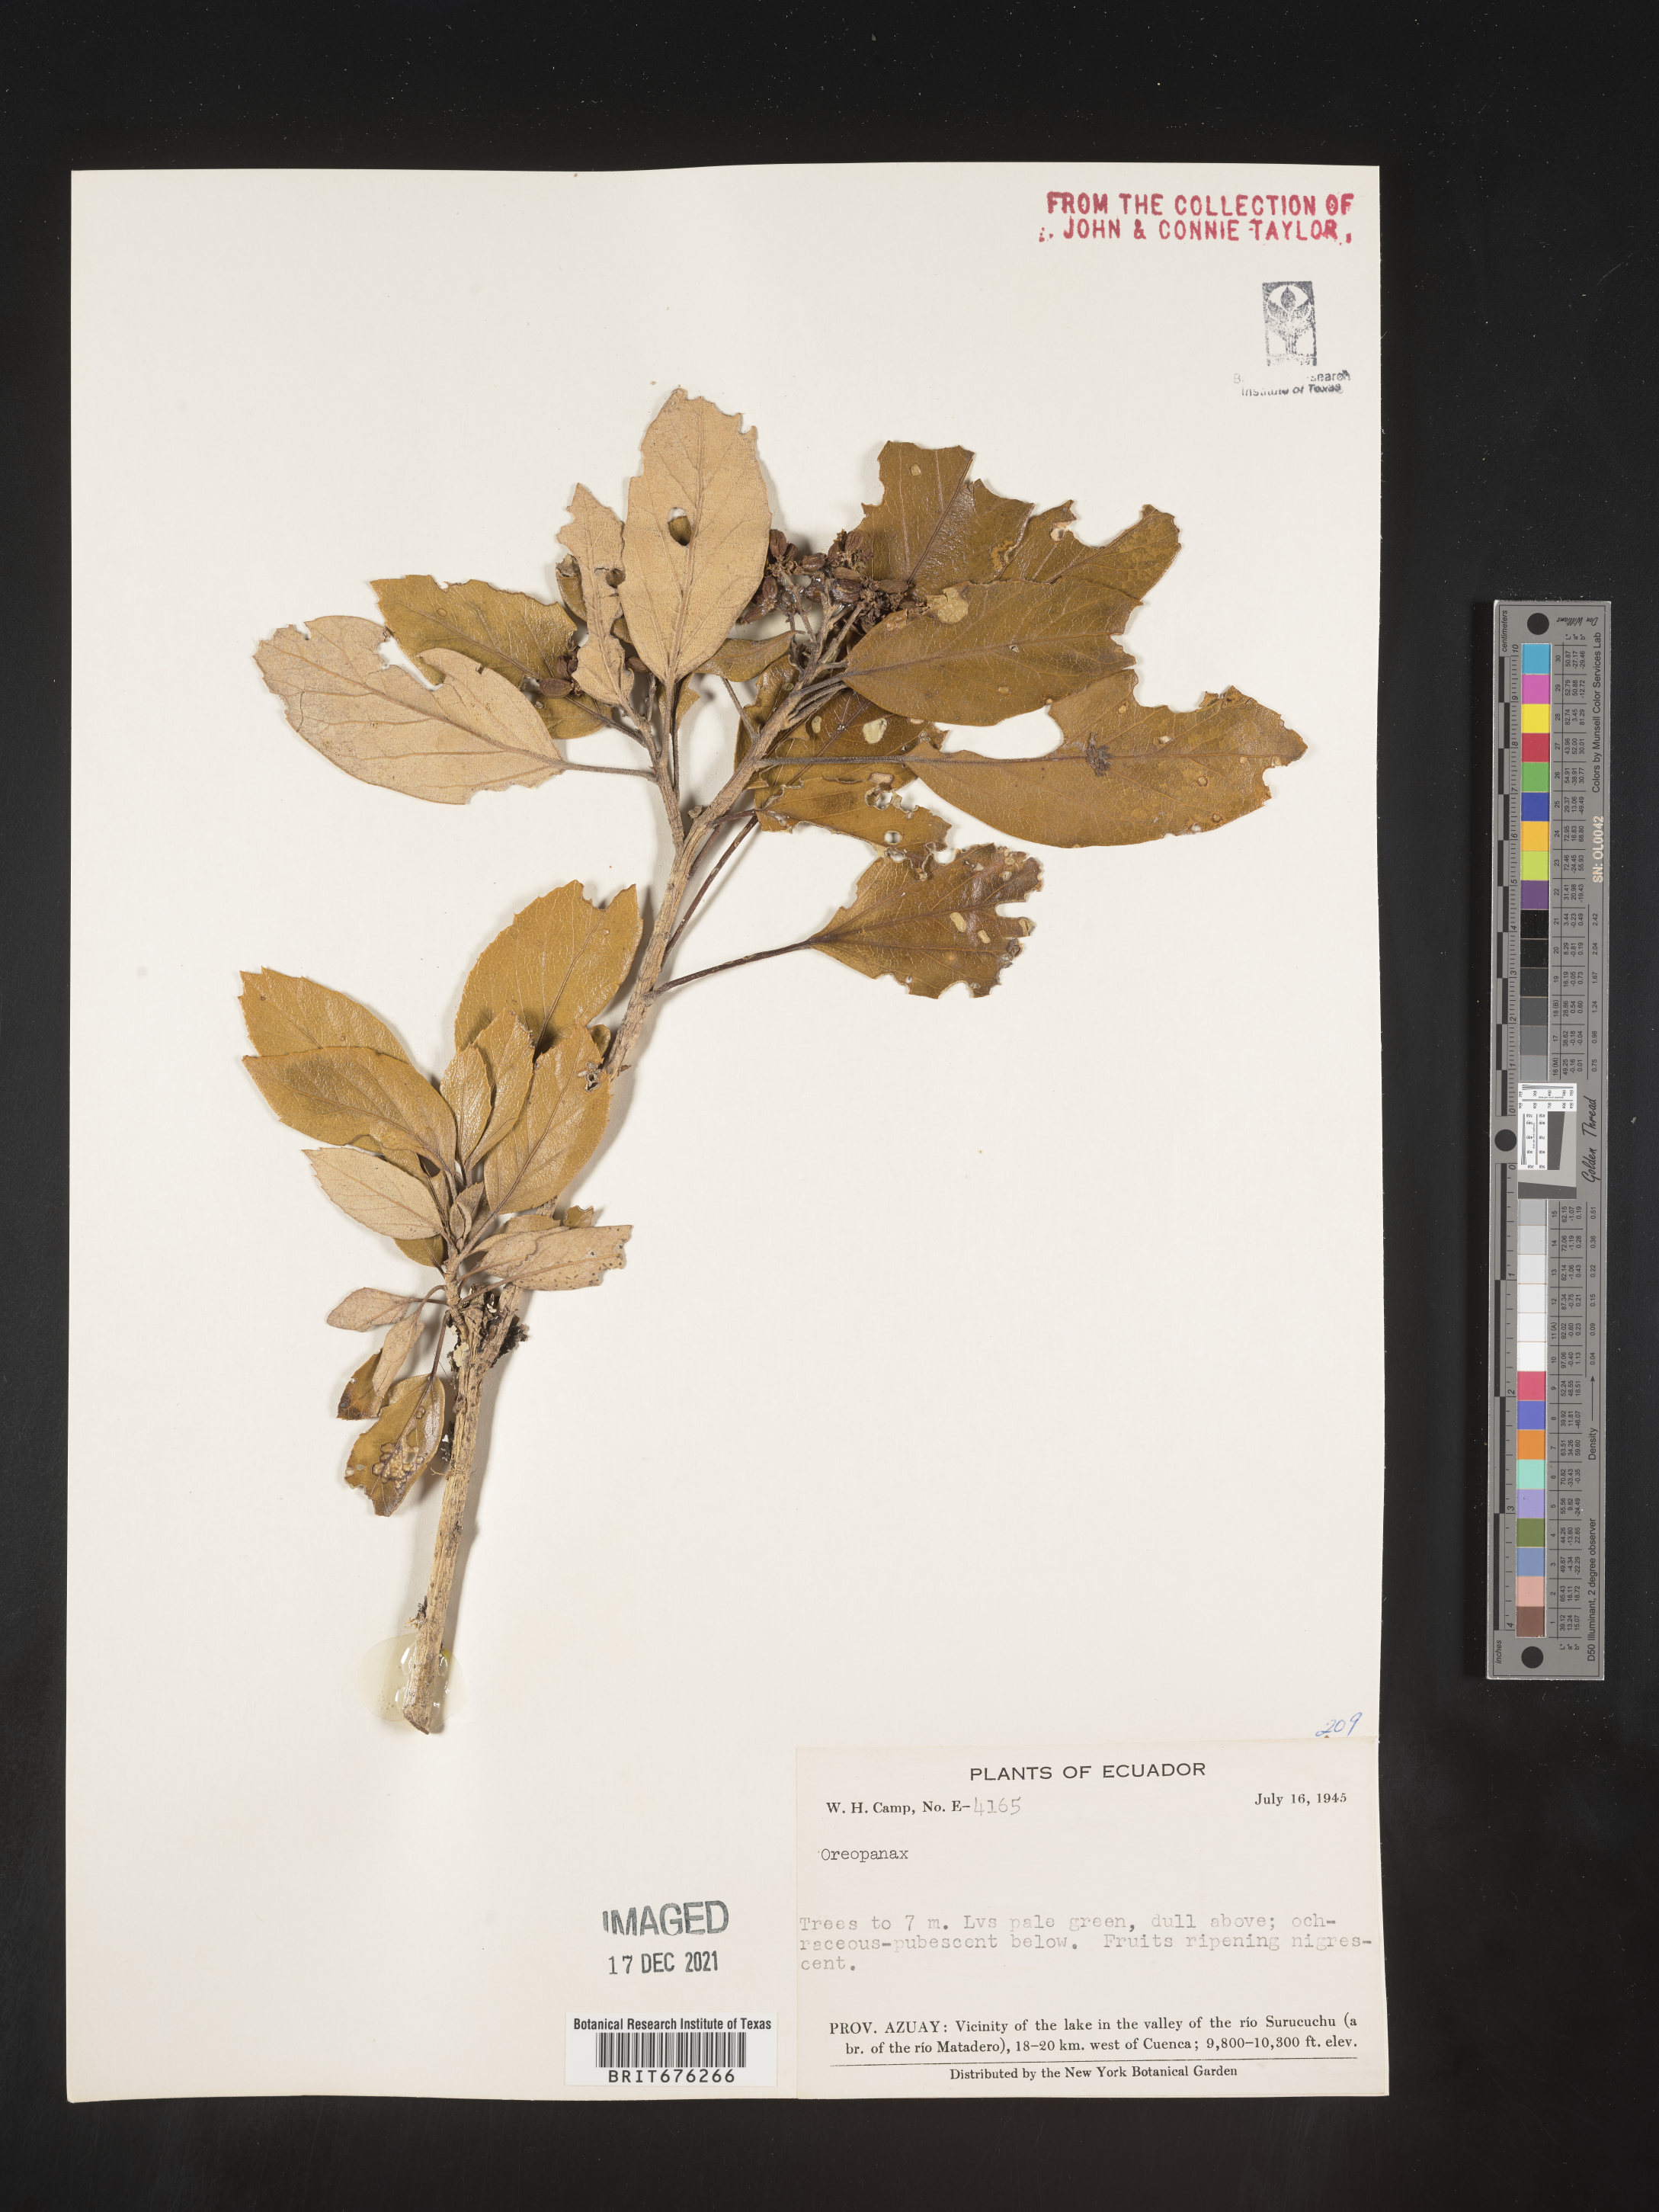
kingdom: Plantae
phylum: Tracheophyta
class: Magnoliopsida
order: Apiales
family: Araliaceae
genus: Oreopanax
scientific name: Oreopanax
